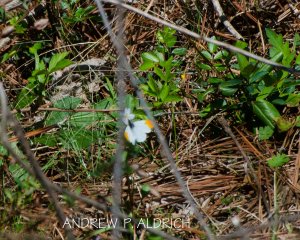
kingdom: Animalia
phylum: Arthropoda
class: Insecta
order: Lepidoptera
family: Pieridae
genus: Anthocharis
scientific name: Anthocharis midea
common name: Falcate Orangetip
